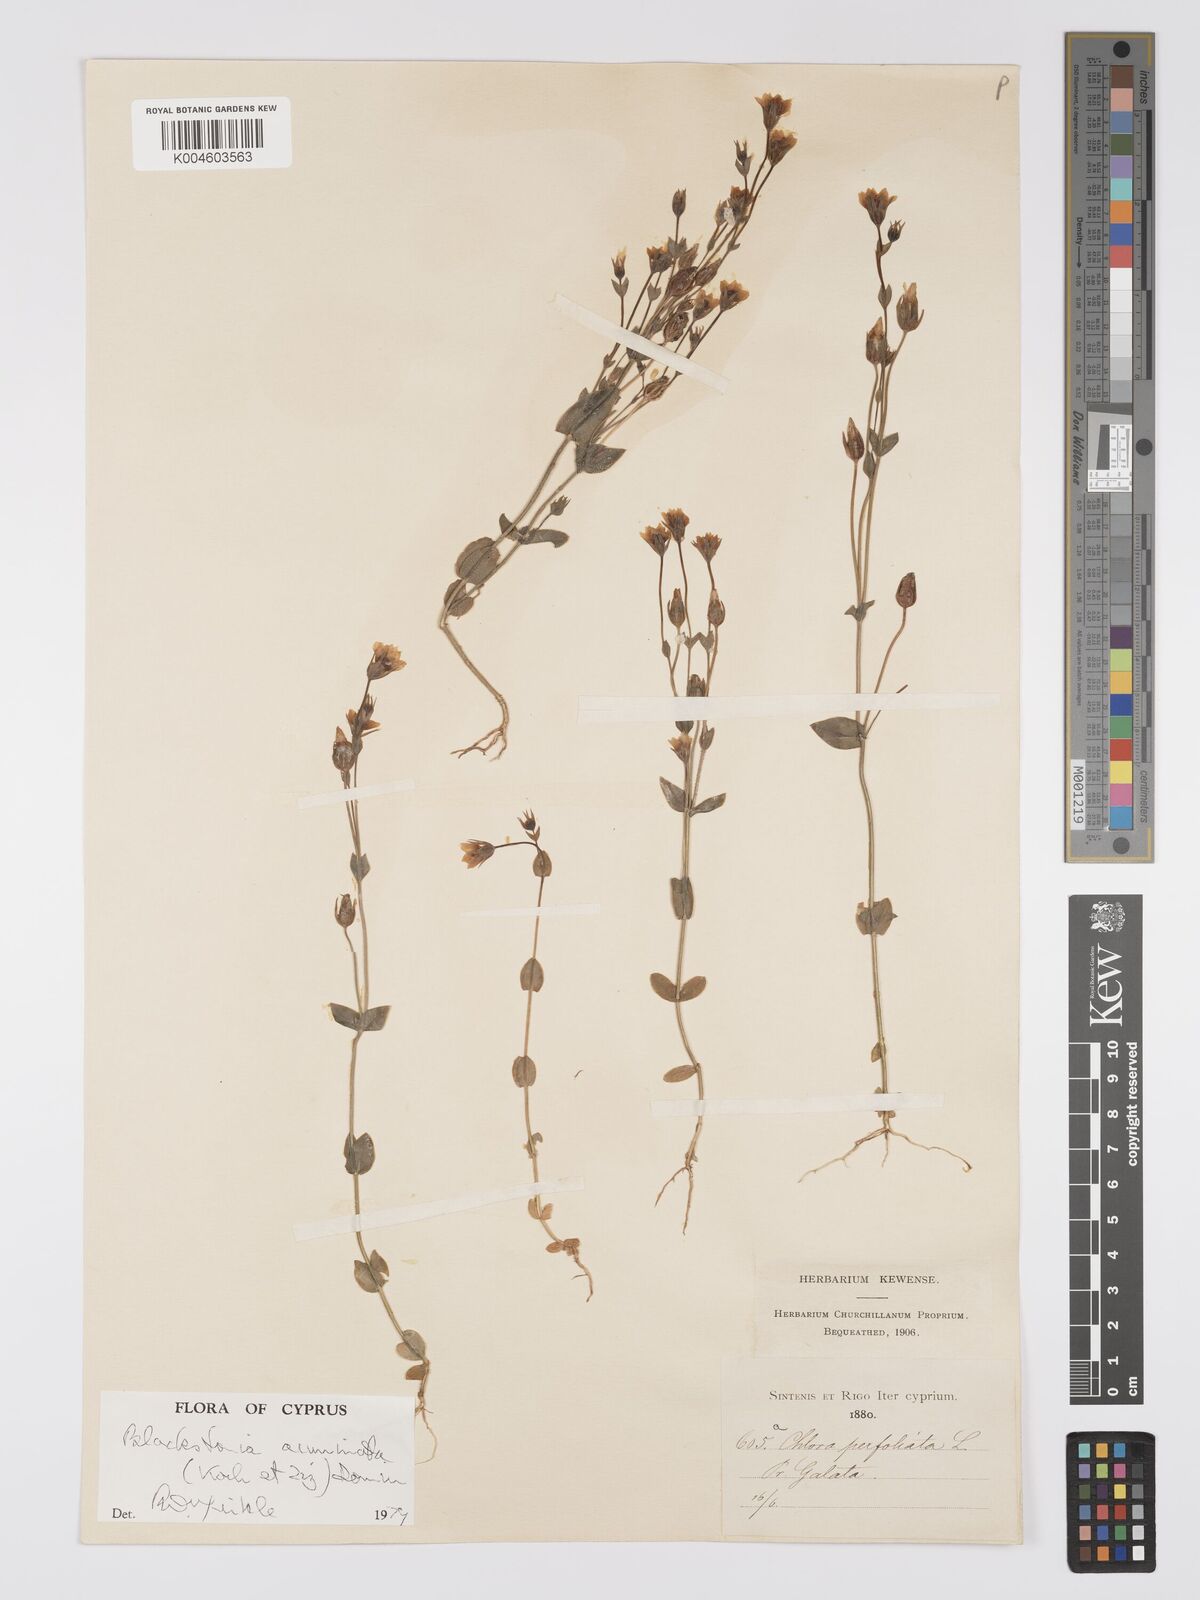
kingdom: Plantae
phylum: Tracheophyta
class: Magnoliopsida
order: Gentianales
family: Gentianaceae
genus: Blackstonia
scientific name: Blackstonia acuminata
